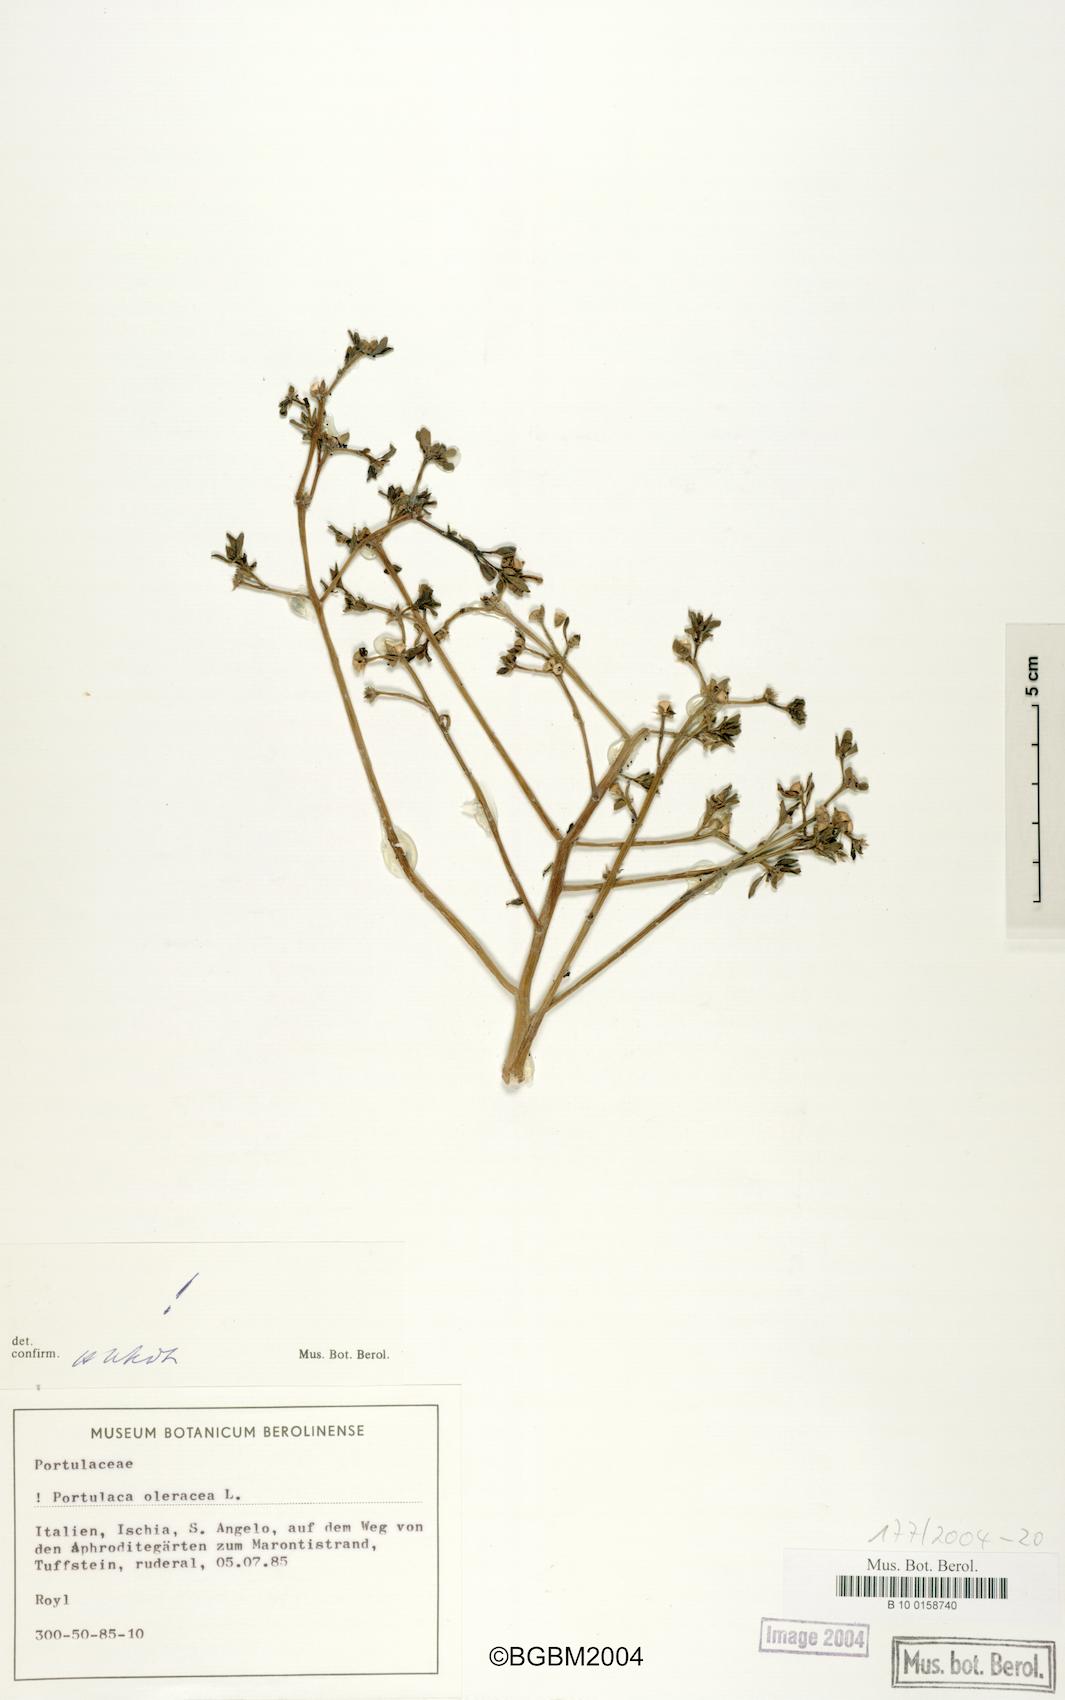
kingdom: Plantae
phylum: Tracheophyta
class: Magnoliopsida
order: Caryophyllales
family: Portulacaceae
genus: Portulaca
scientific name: Portulaca oleracea
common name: Common purslane
